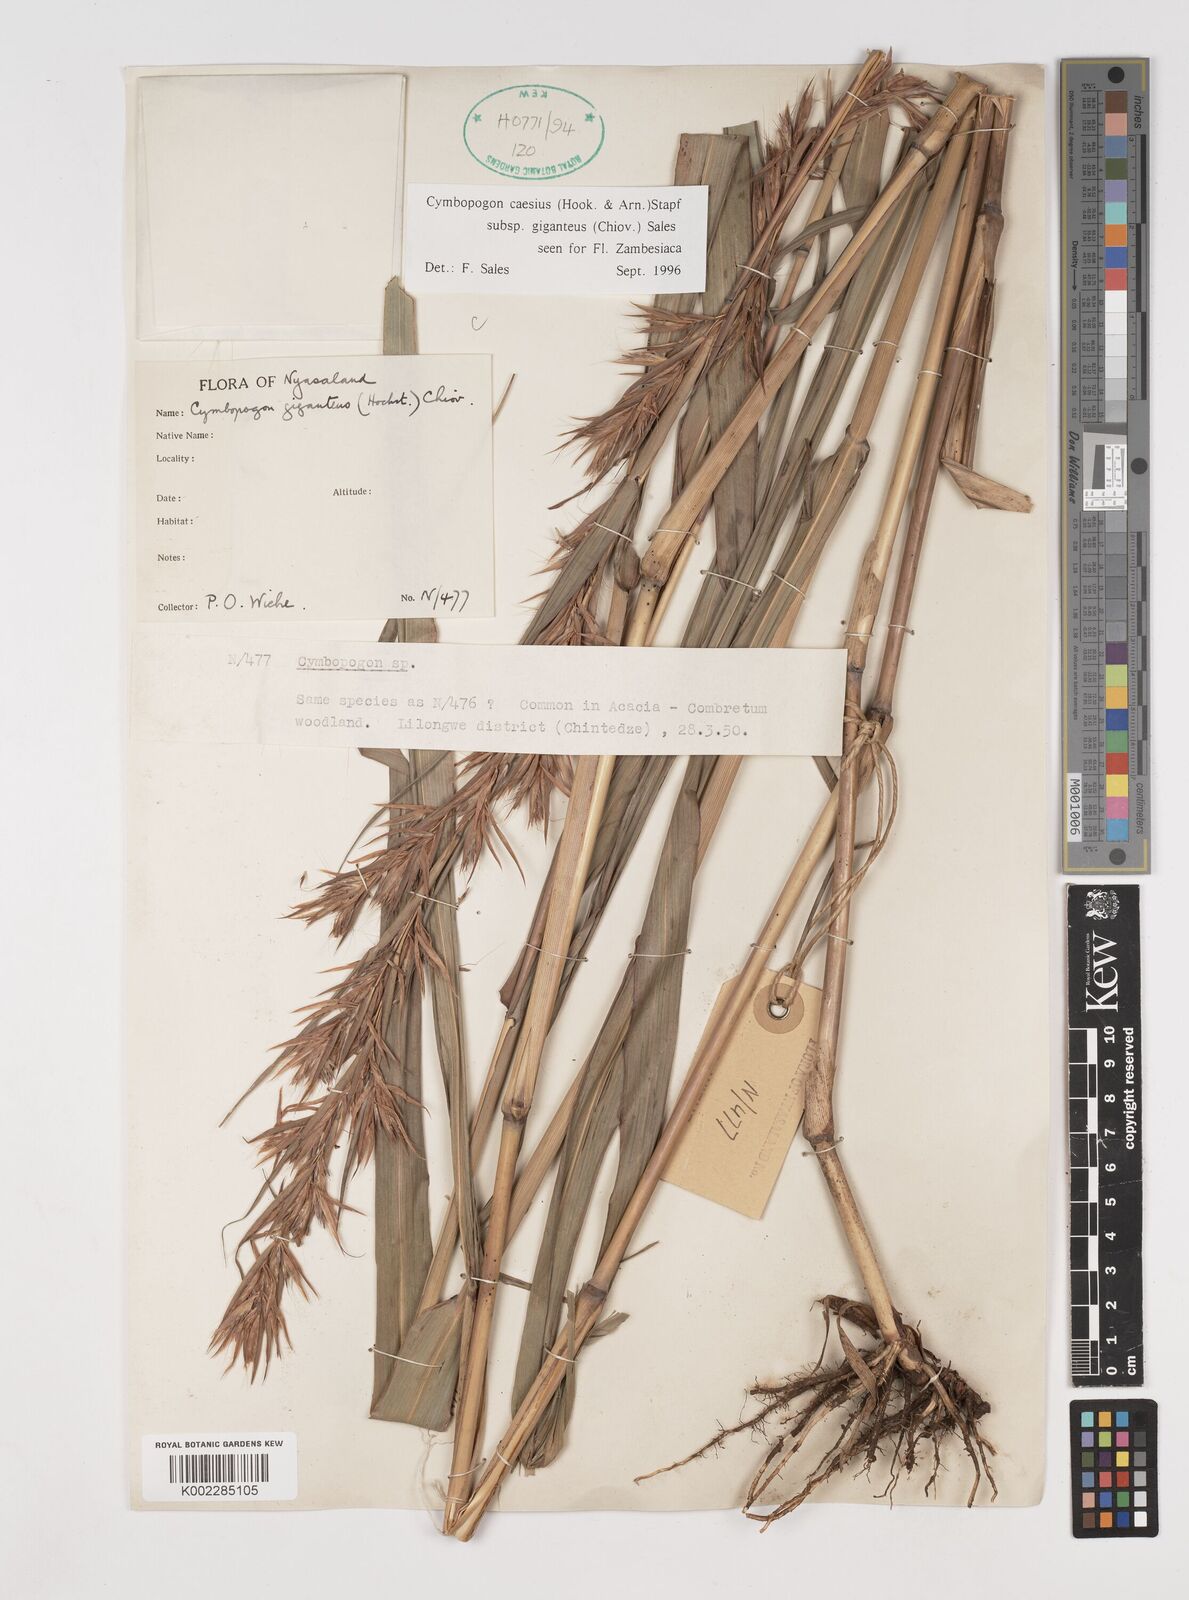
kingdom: Plantae
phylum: Tracheophyta
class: Liliopsida
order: Poales
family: Poaceae
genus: Cymbopogon
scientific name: Cymbopogon giganteus
